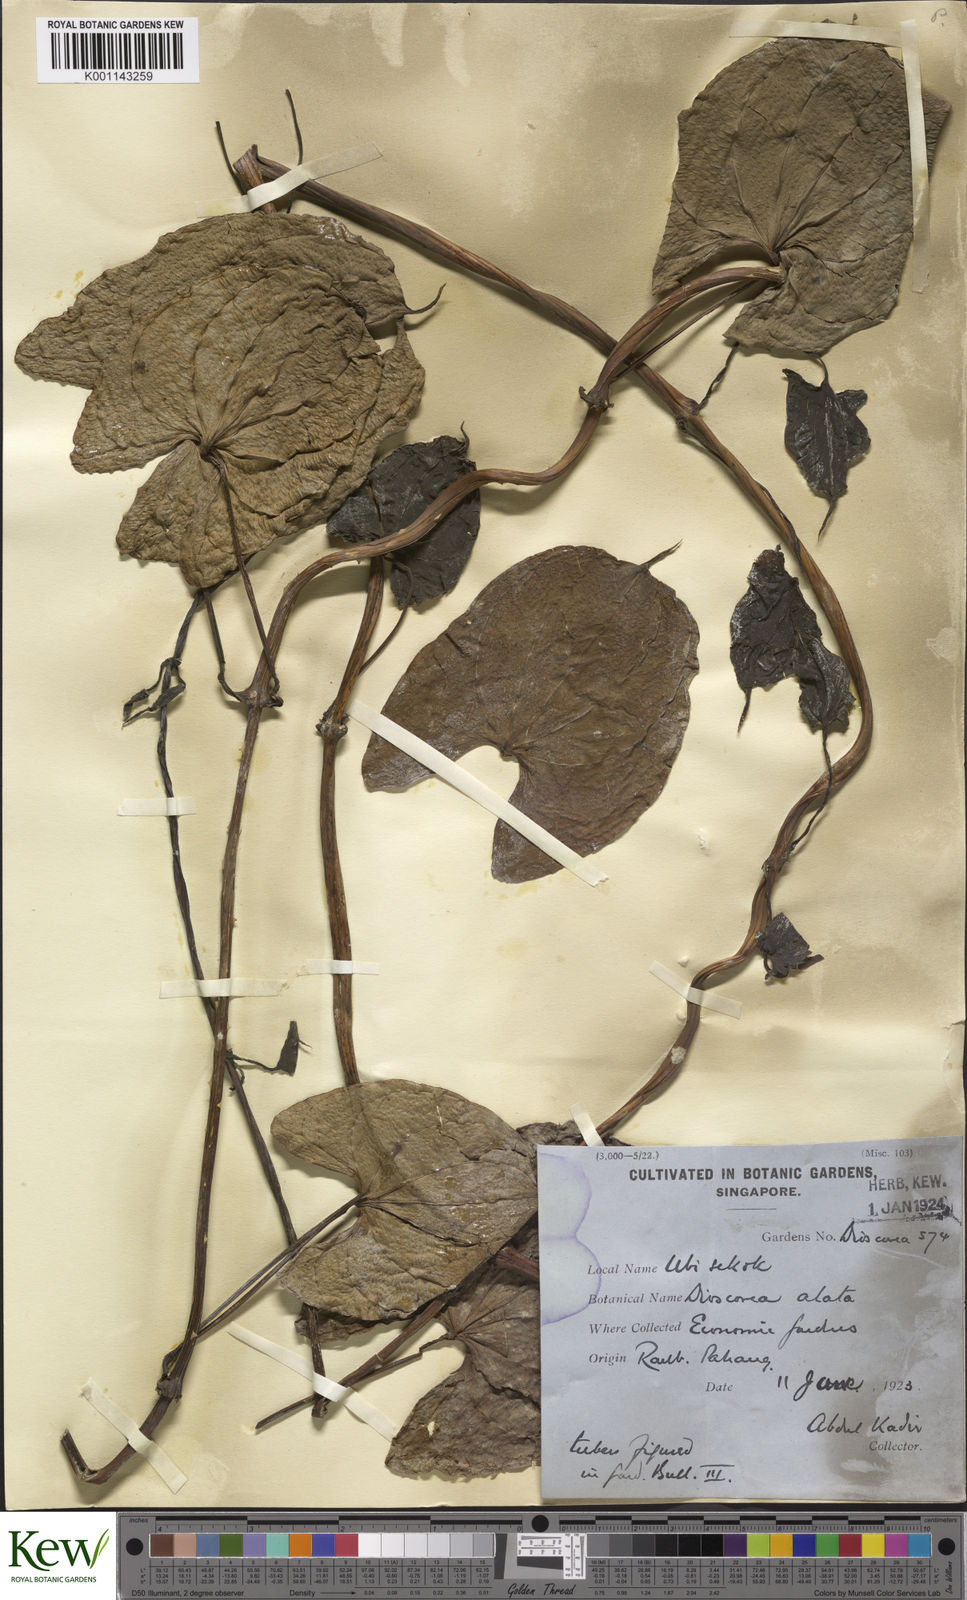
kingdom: Plantae
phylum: Tracheophyta
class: Liliopsida
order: Dioscoreales
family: Dioscoreaceae
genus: Dioscorea
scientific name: Dioscorea alata
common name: Water yam
